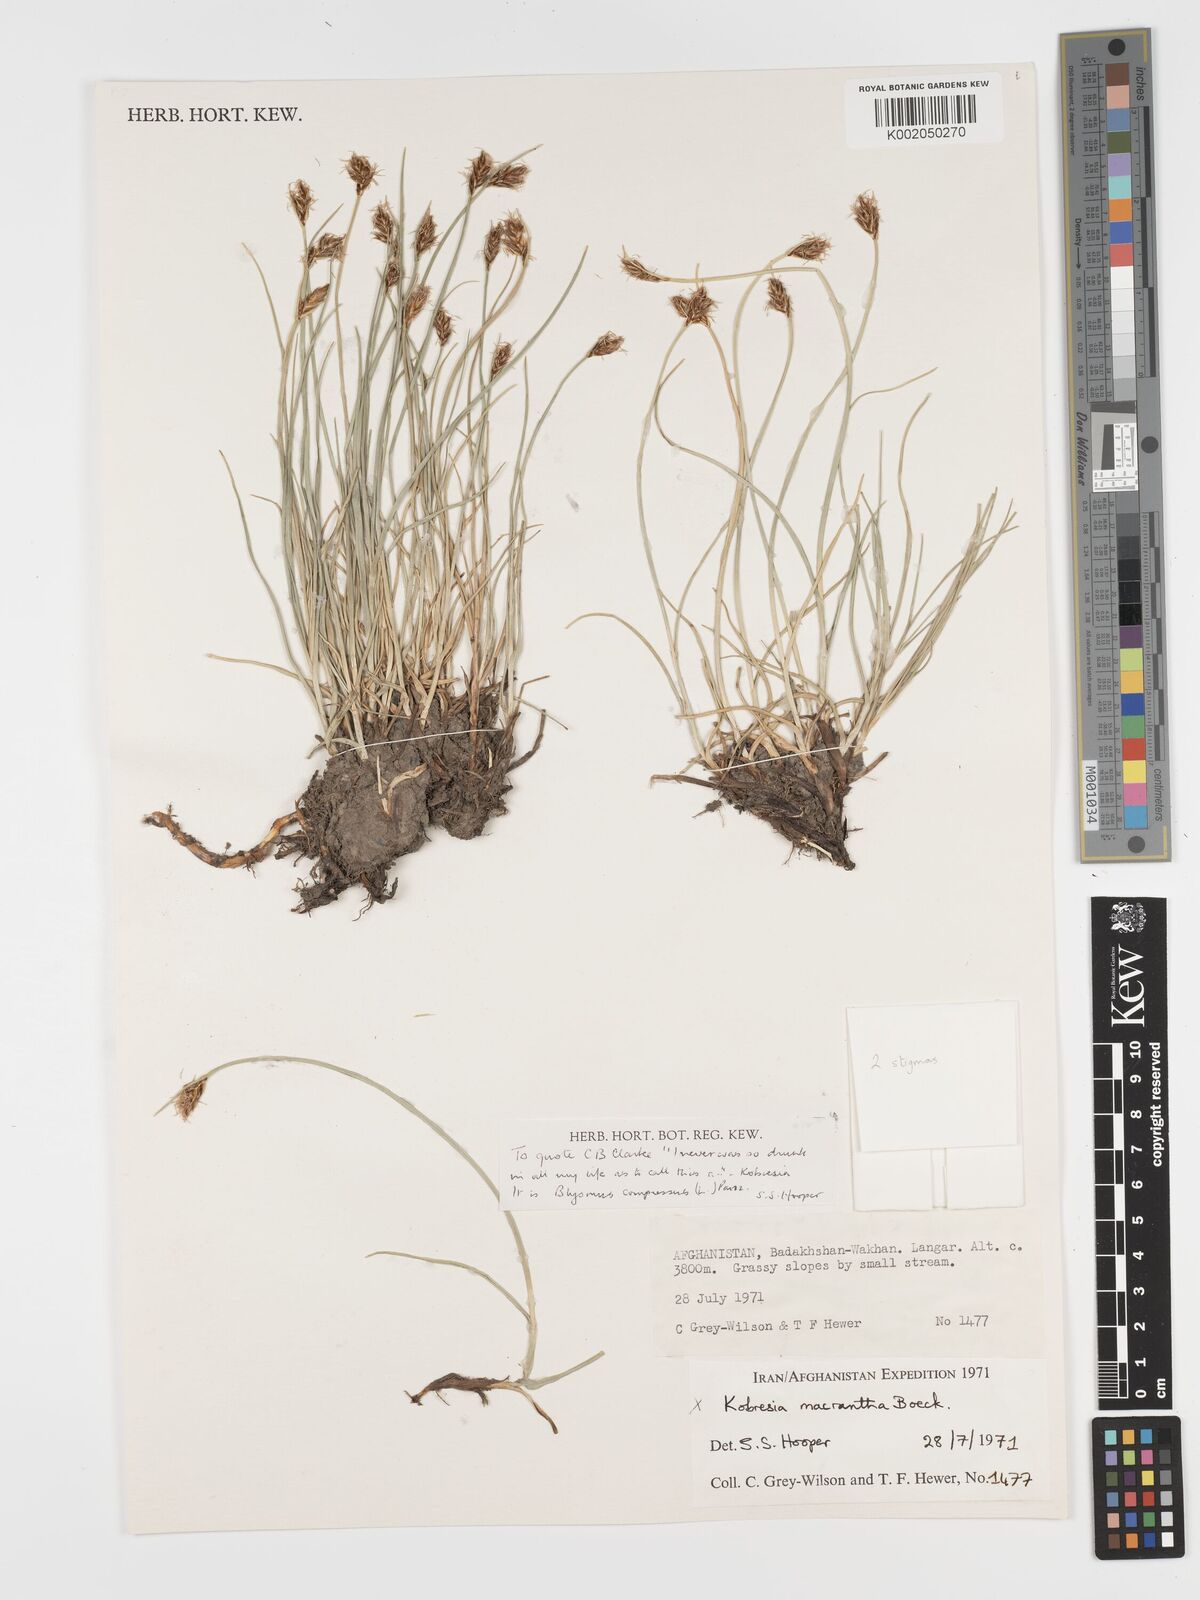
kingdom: Plantae
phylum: Tracheophyta
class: Liliopsida
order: Poales
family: Cyperaceae
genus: Blysmus
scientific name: Blysmus compressus
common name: Flat-sedge
